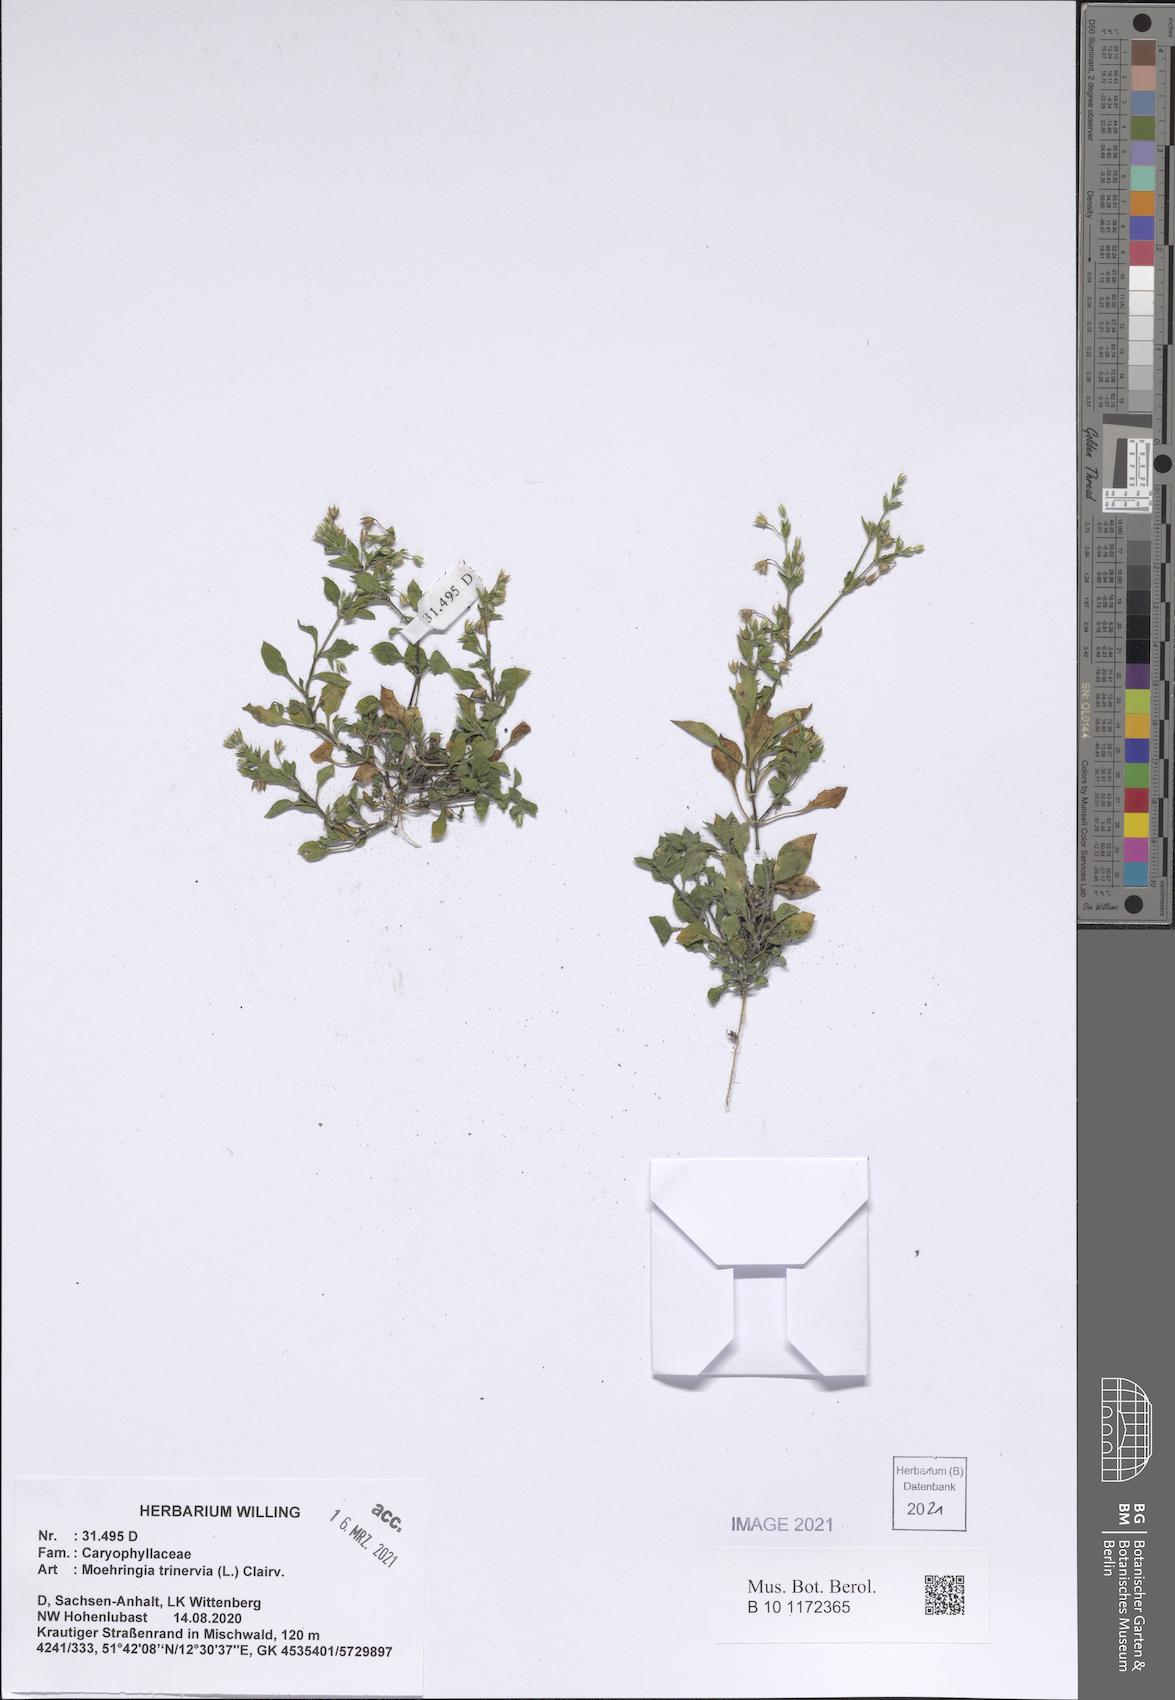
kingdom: Plantae
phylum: Tracheophyta
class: Magnoliopsida
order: Caryophyllales
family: Caryophyllaceae
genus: Moehringia
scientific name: Moehringia trinervia
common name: Three-nerved sandwort
